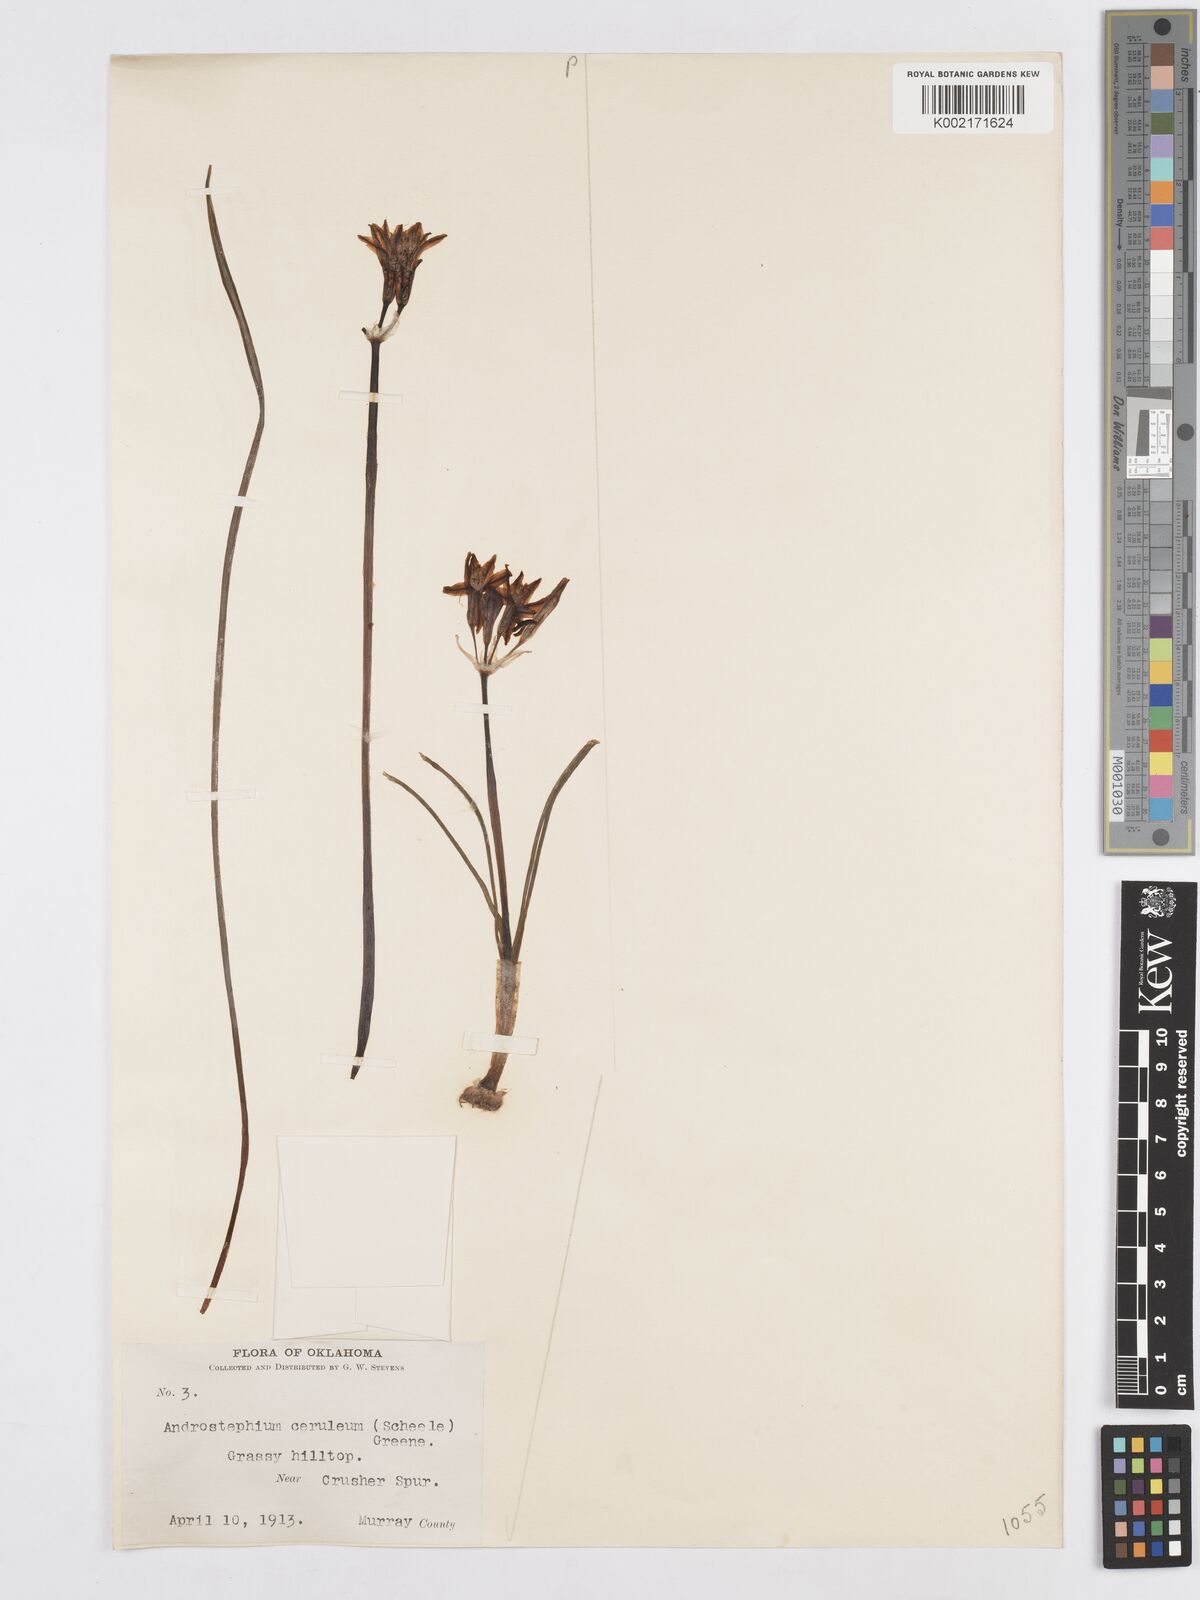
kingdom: Plantae
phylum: Tracheophyta
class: Liliopsida
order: Asparagales
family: Asparagaceae
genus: Androstephium
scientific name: Androstephium coeruleum
